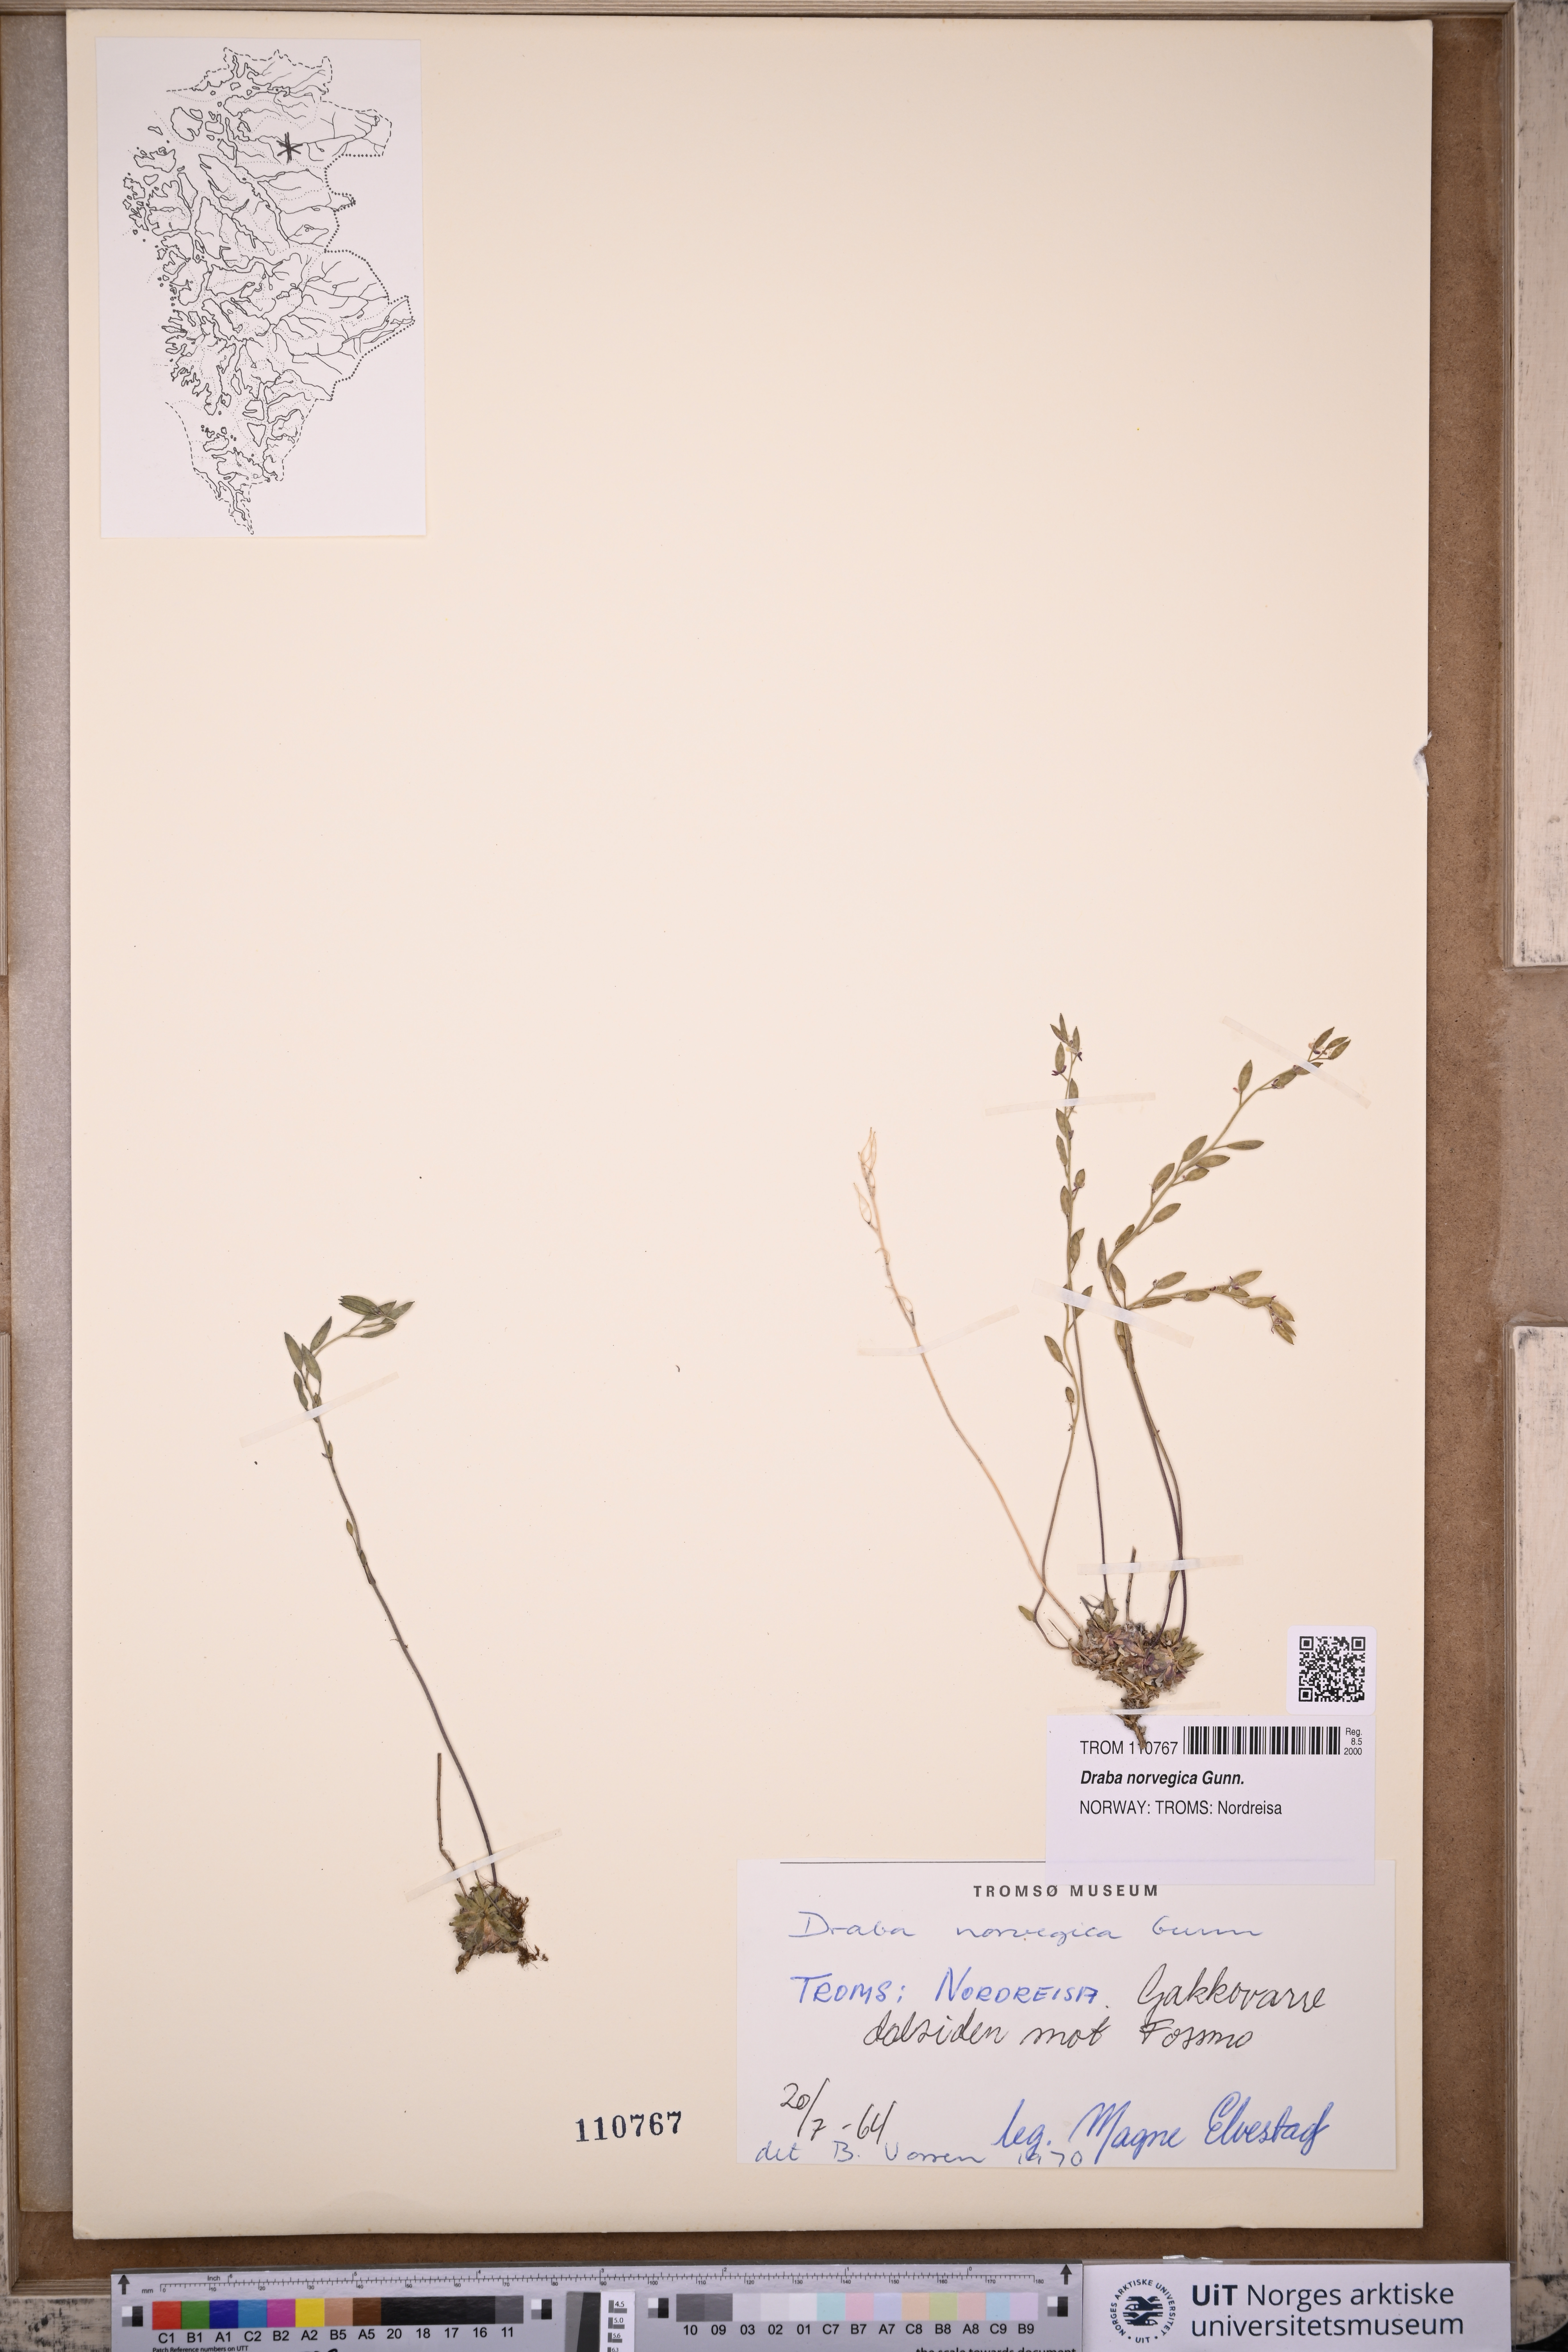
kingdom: Plantae
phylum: Tracheophyta
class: Magnoliopsida
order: Brassicales
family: Brassicaceae
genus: Draba
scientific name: Draba norvegica
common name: Rock whitlowgrass
